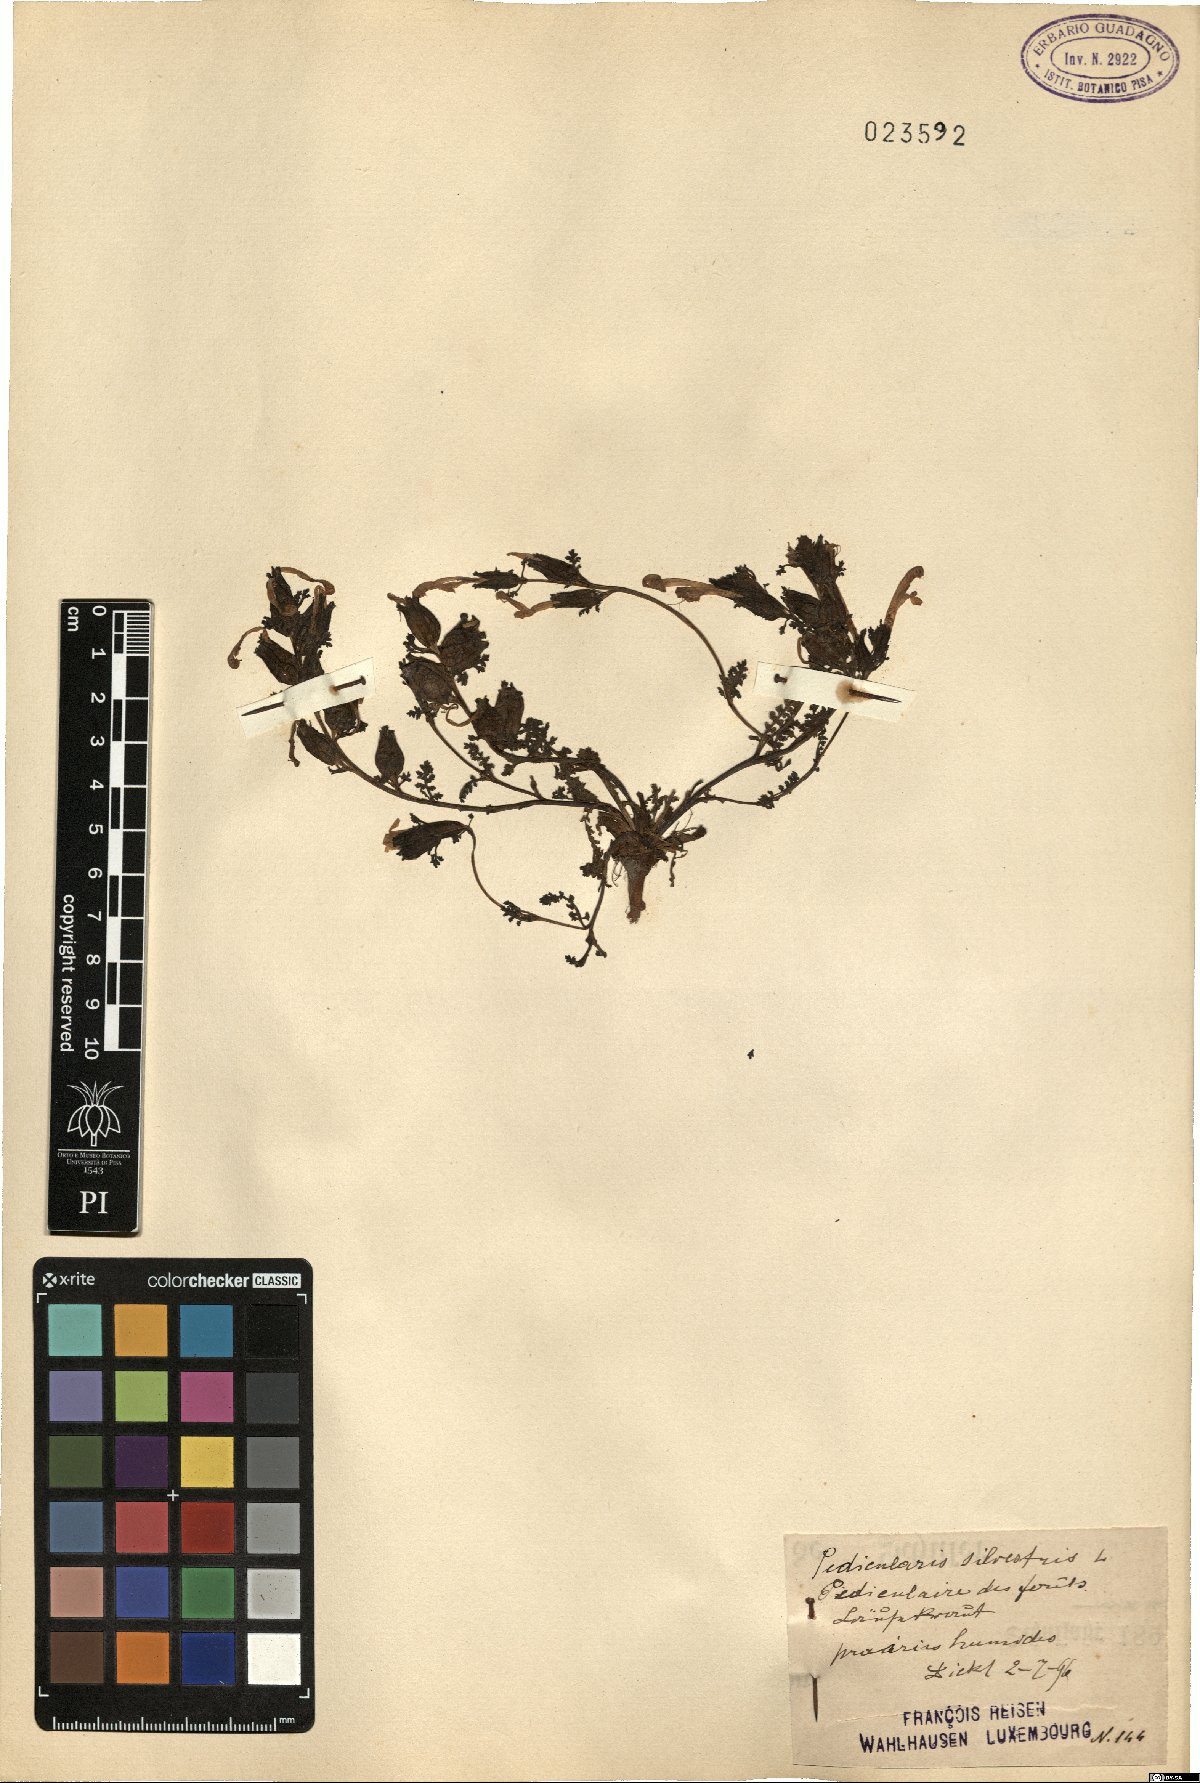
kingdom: Plantae
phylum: Tracheophyta
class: Magnoliopsida
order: Lamiales
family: Orobanchaceae
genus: Pedicularis
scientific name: Pedicularis sylvatica
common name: Lousewort
